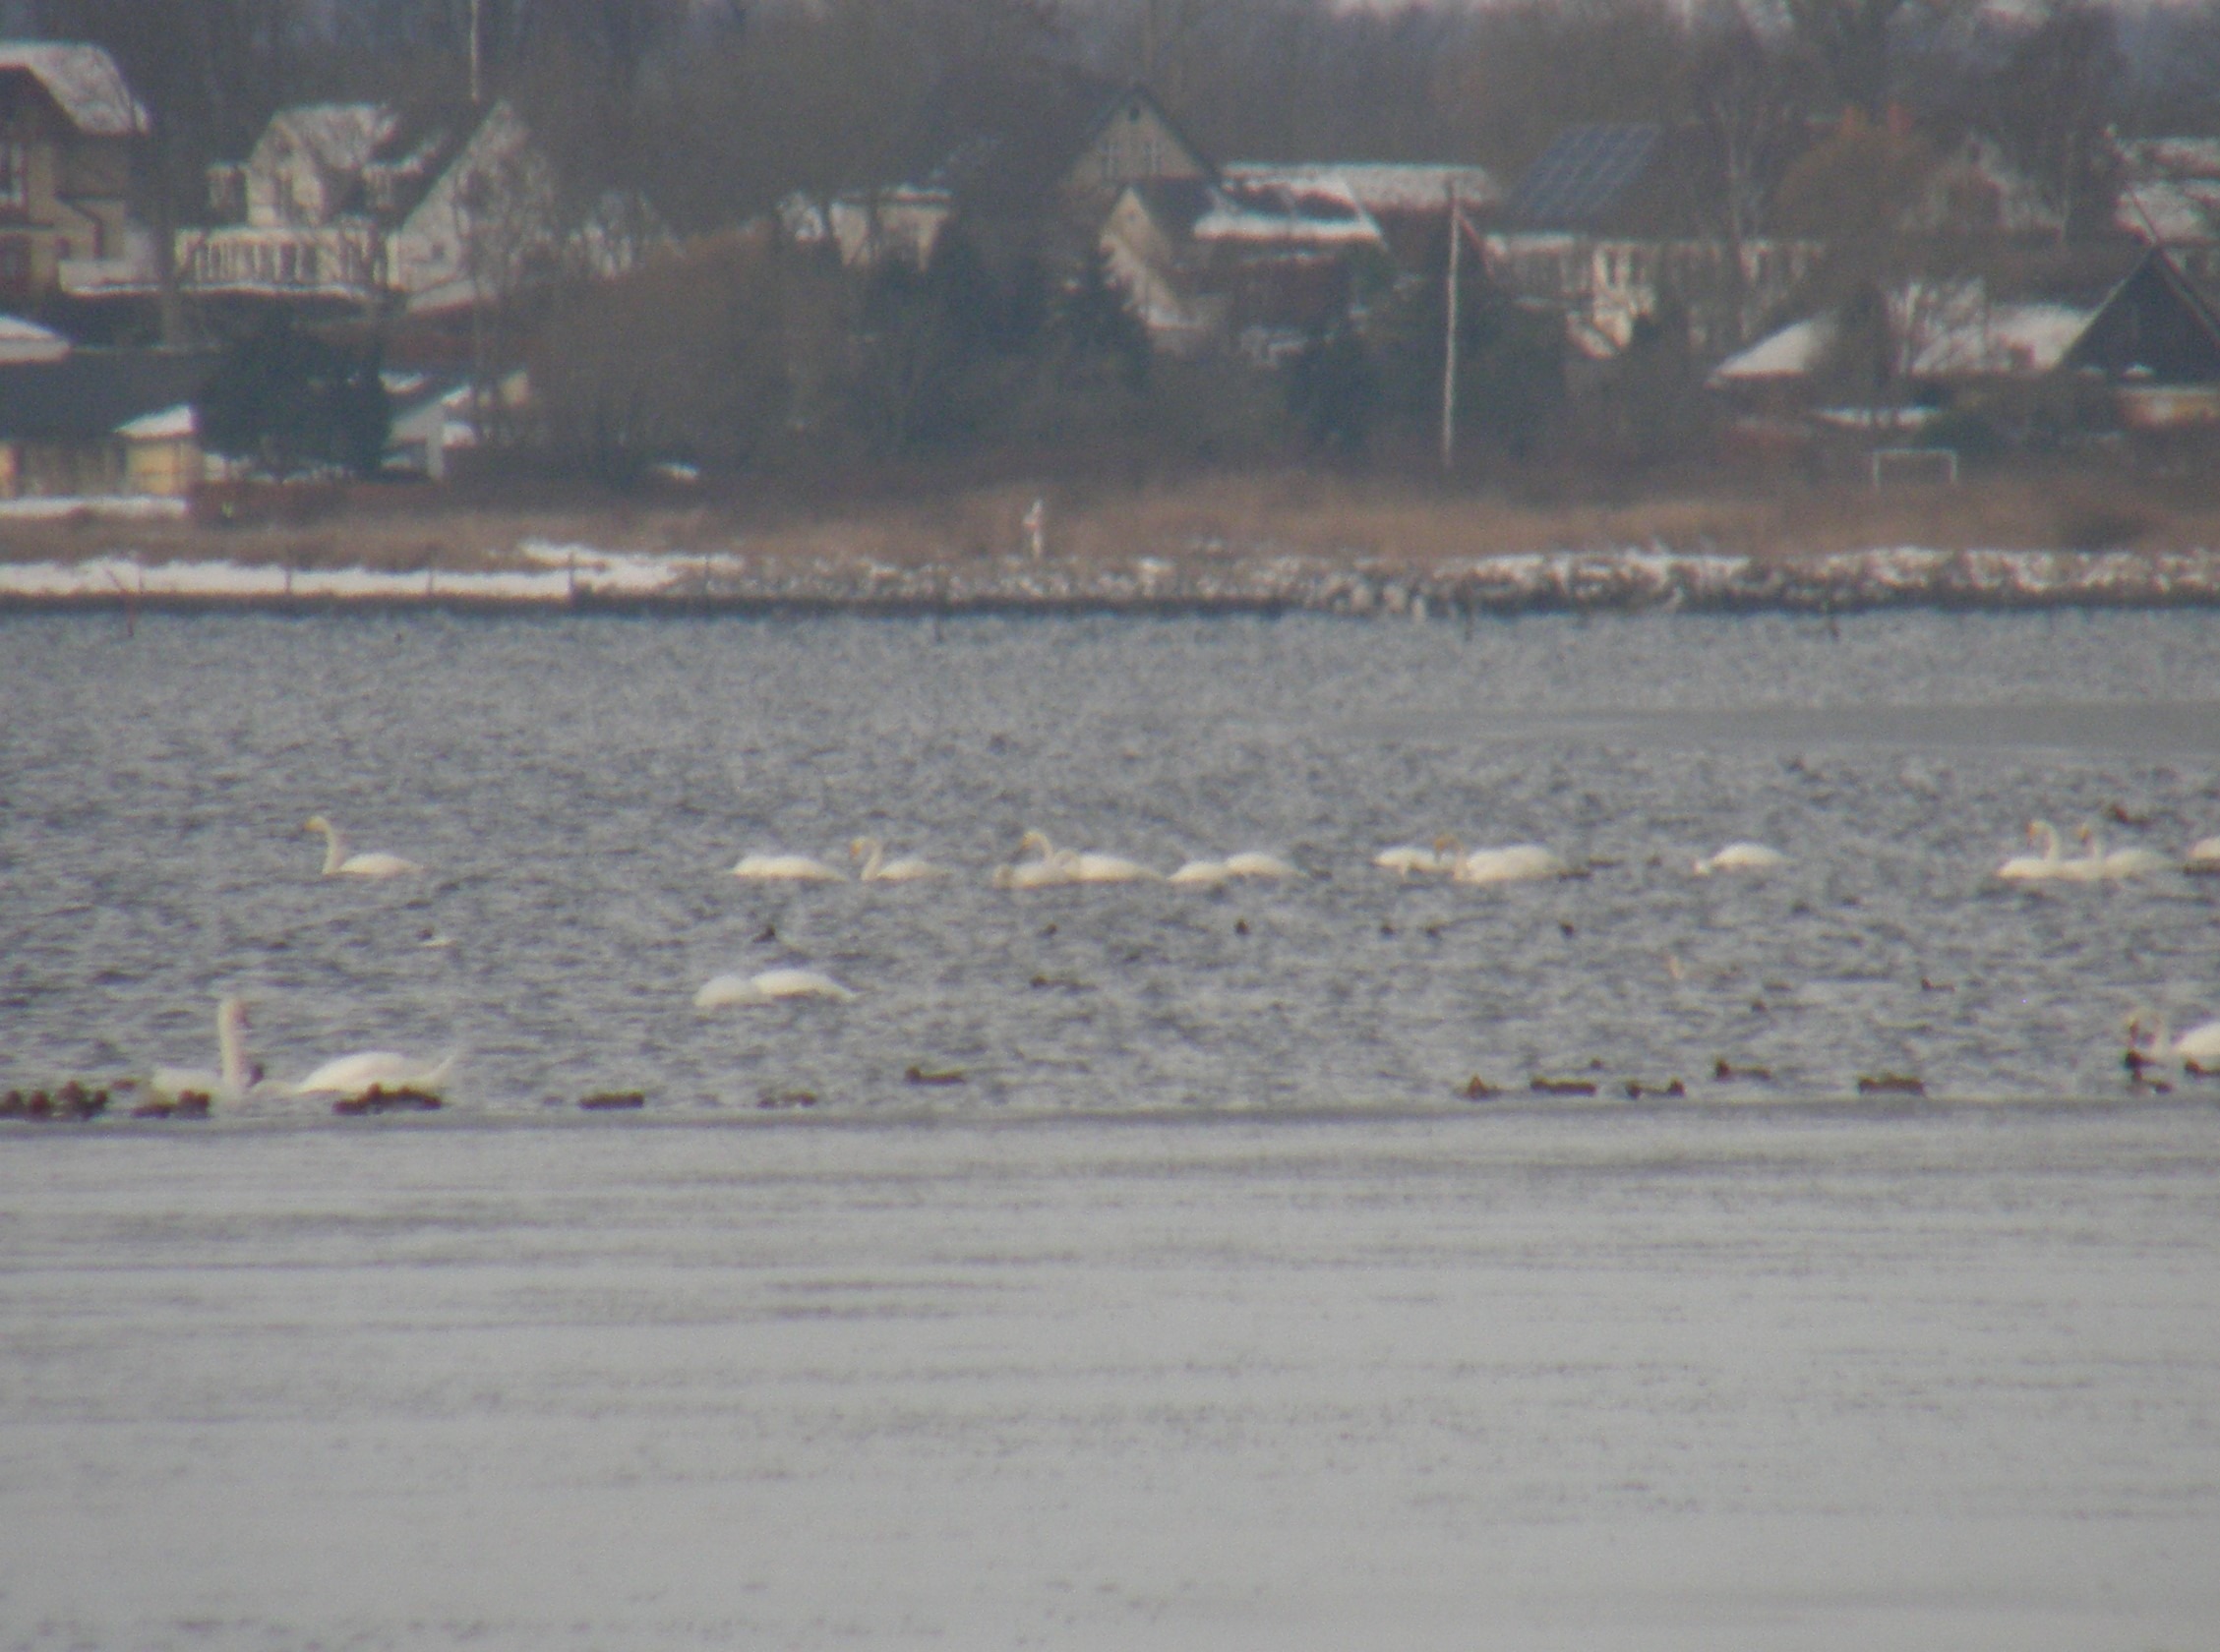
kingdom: Animalia
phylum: Chordata
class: Aves
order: Anseriformes
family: Anatidae
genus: Cygnus
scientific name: Cygnus cygnus
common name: Sangsvane
